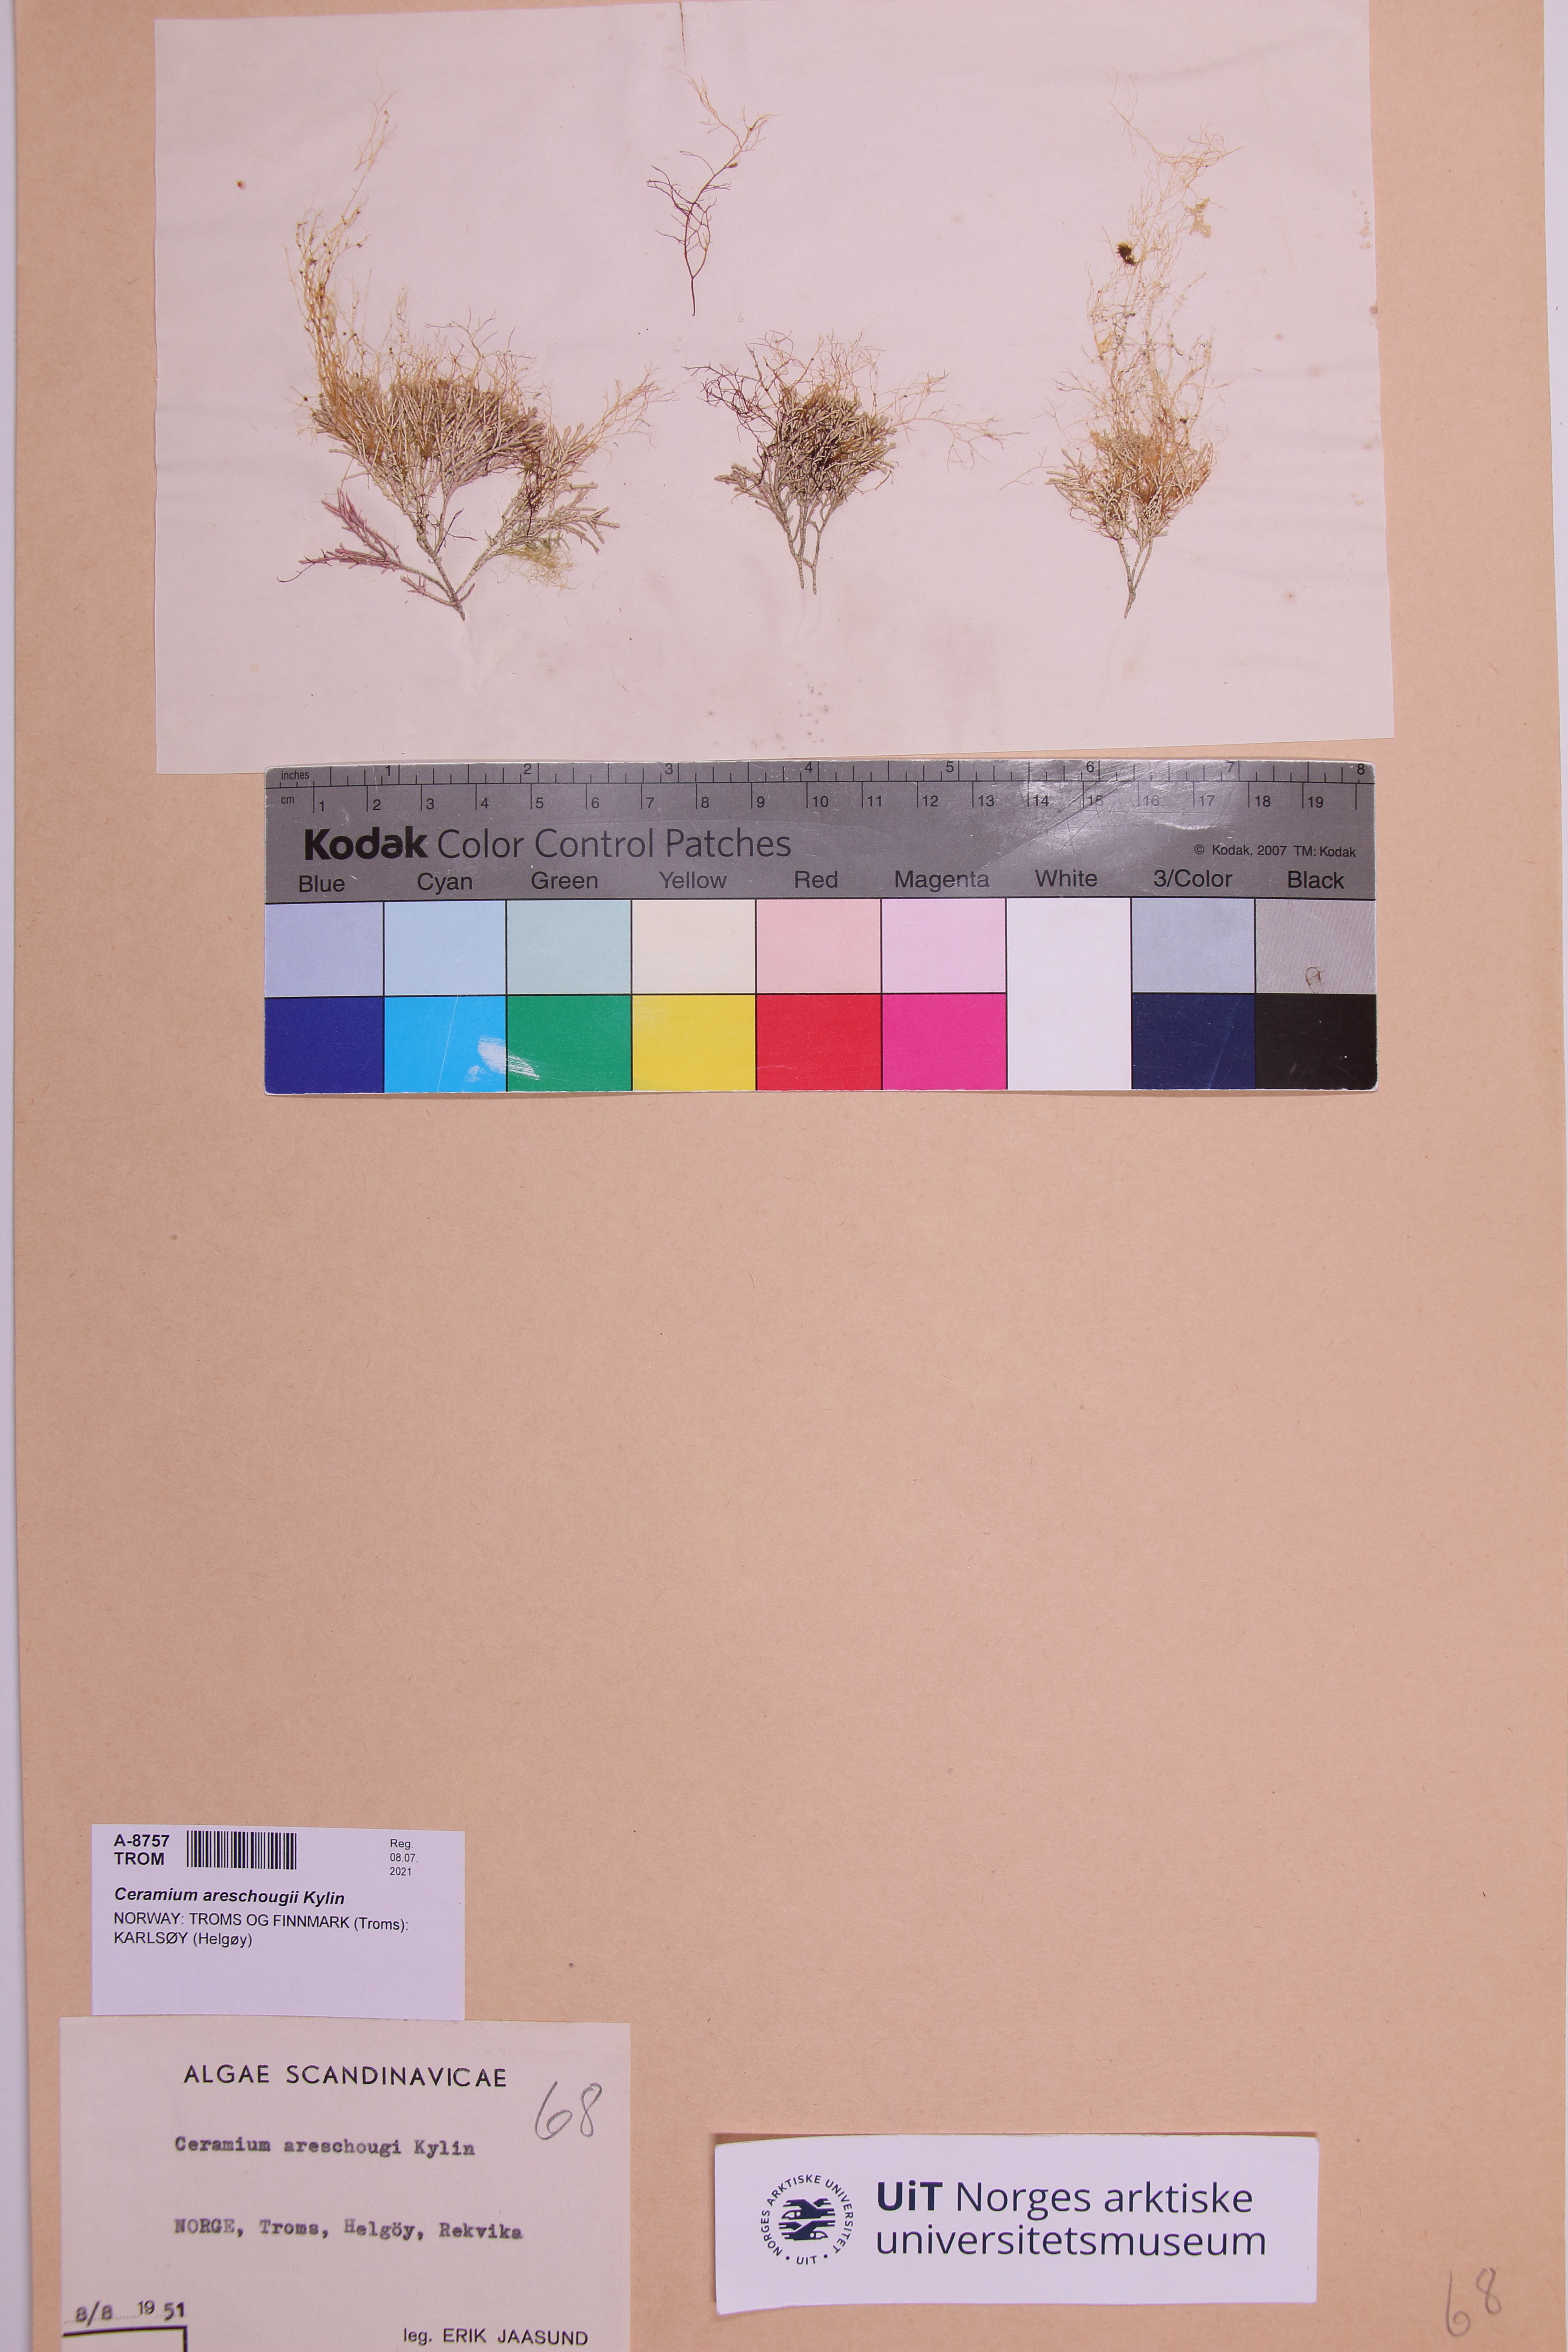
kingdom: Plantae
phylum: Rhodophyta
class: Florideophyceae
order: Ceramiales
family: Ceramiaceae
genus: Ceramium
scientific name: Ceramium areschougii
